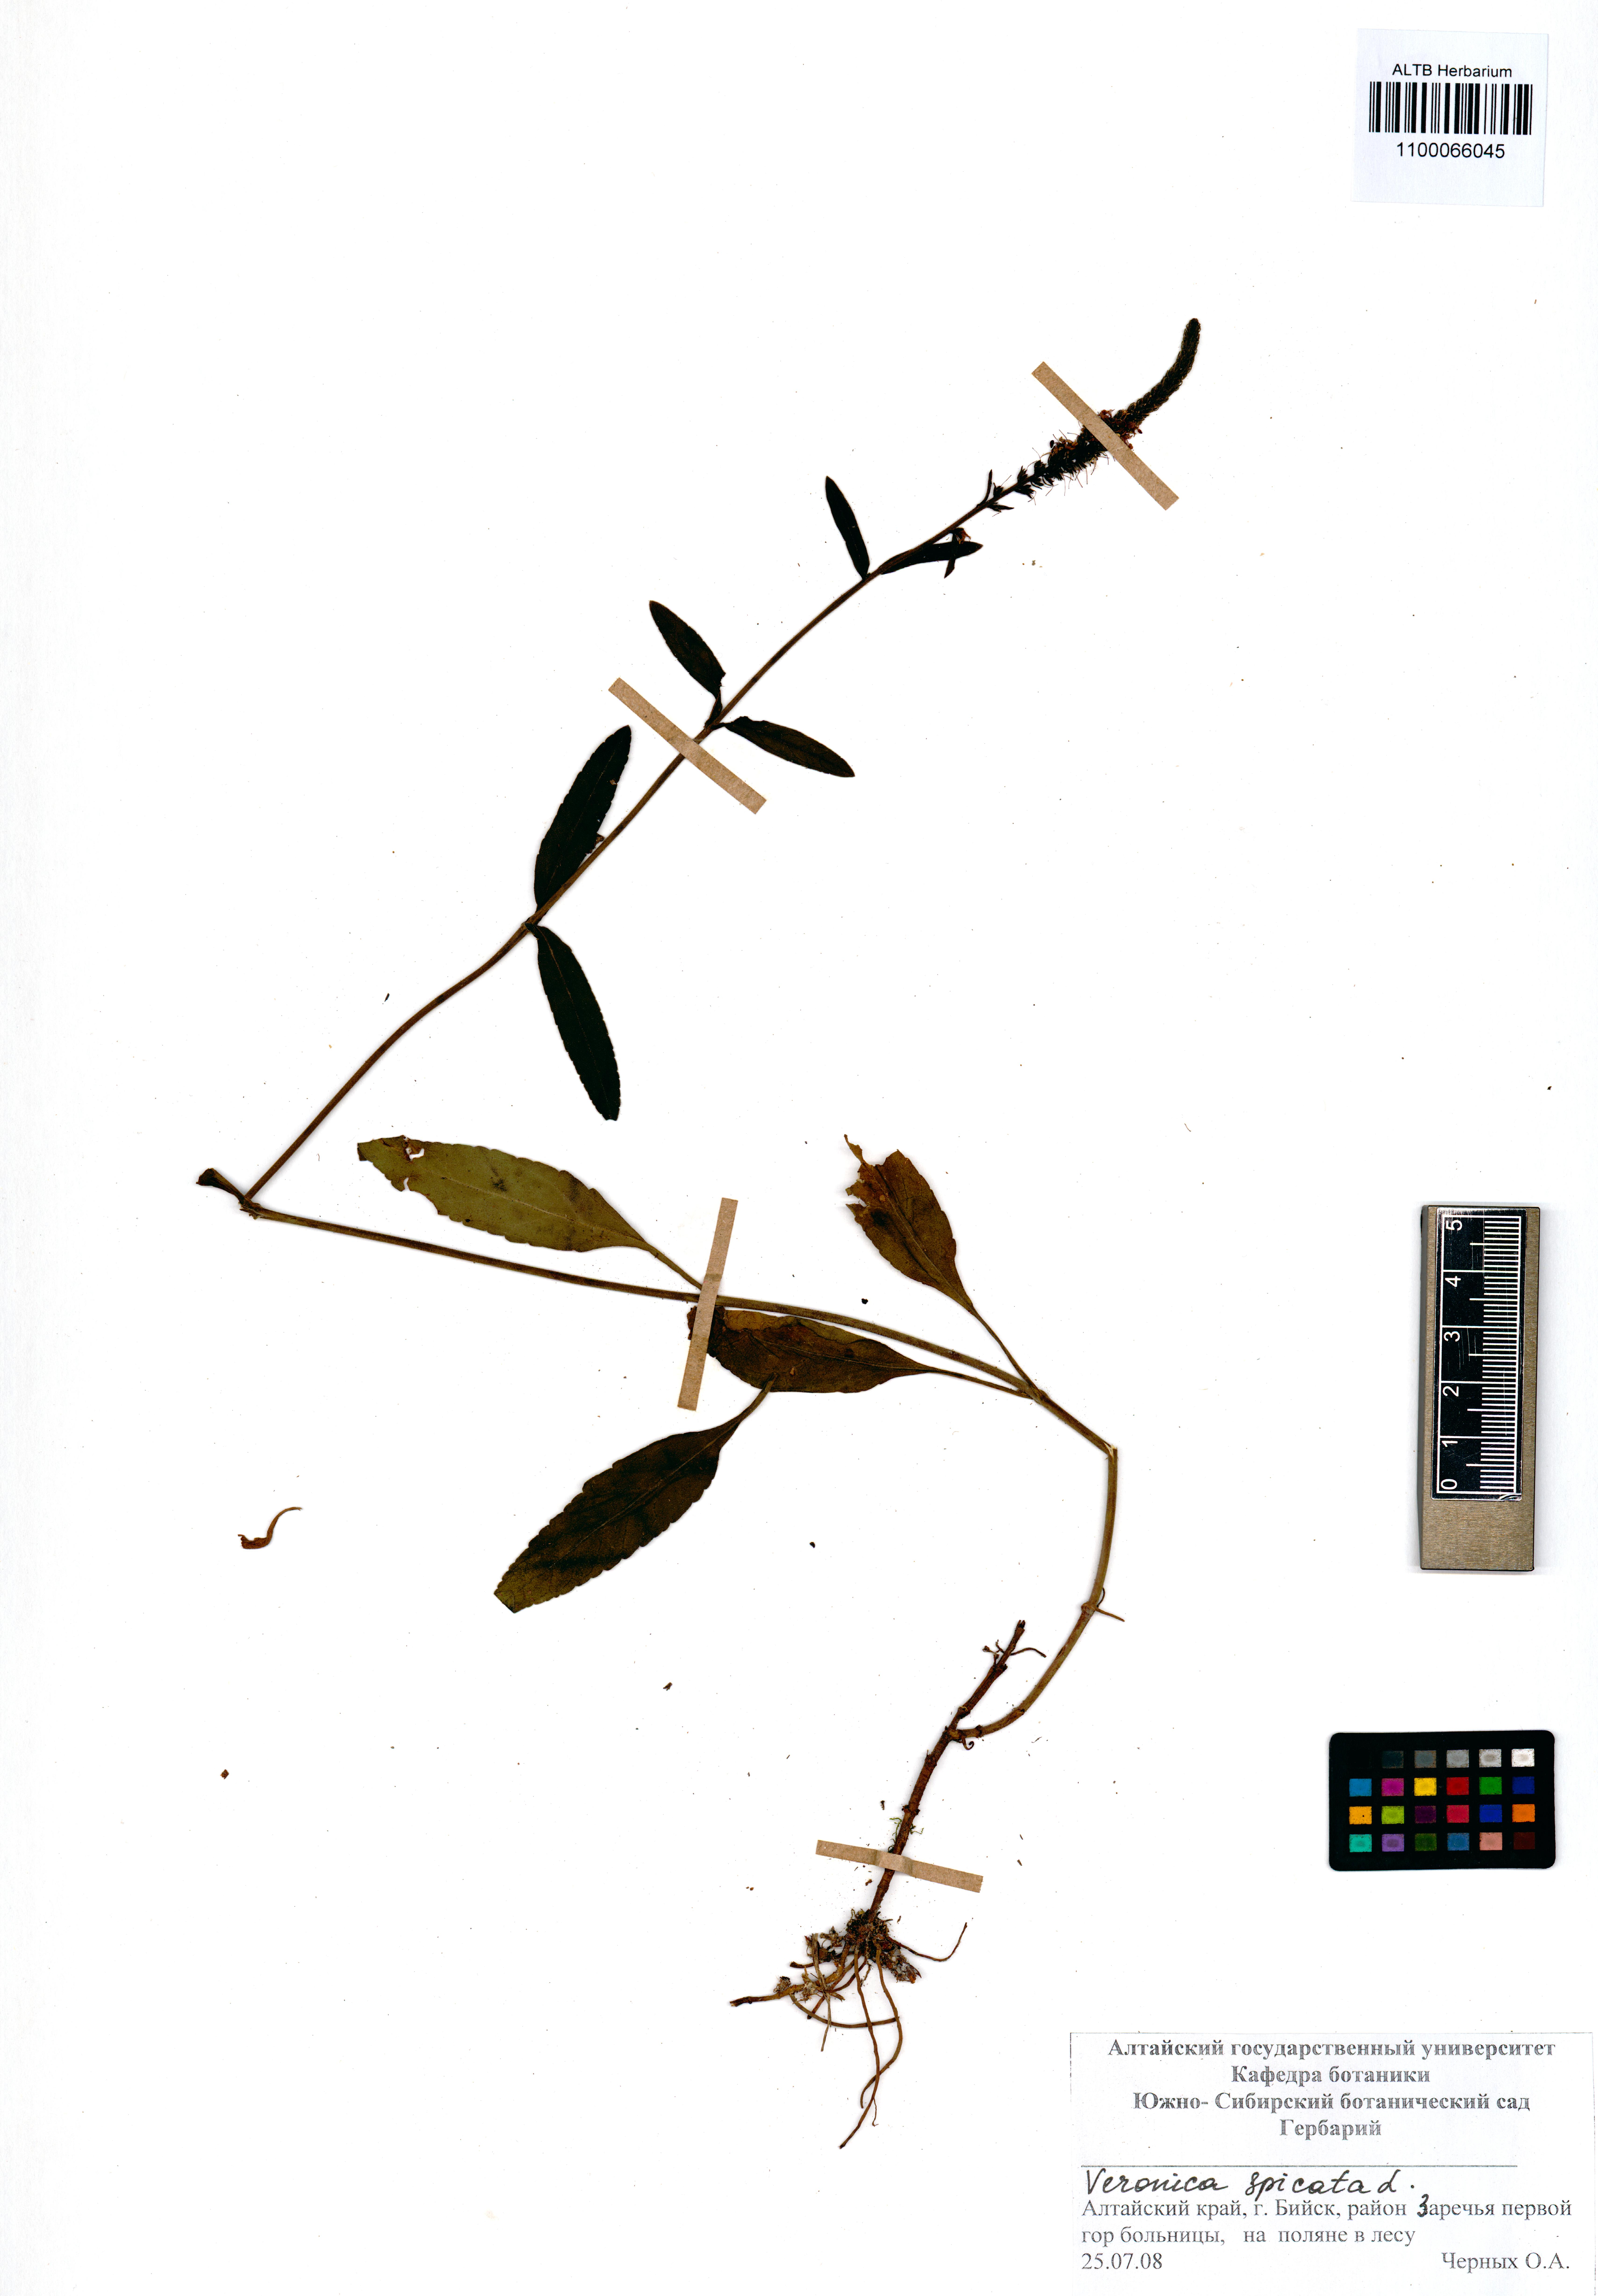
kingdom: Plantae
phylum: Tracheophyta
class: Magnoliopsida
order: Lamiales
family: Plantaginaceae
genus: Veronica
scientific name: Veronica spicata
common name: Spiked speedwell
